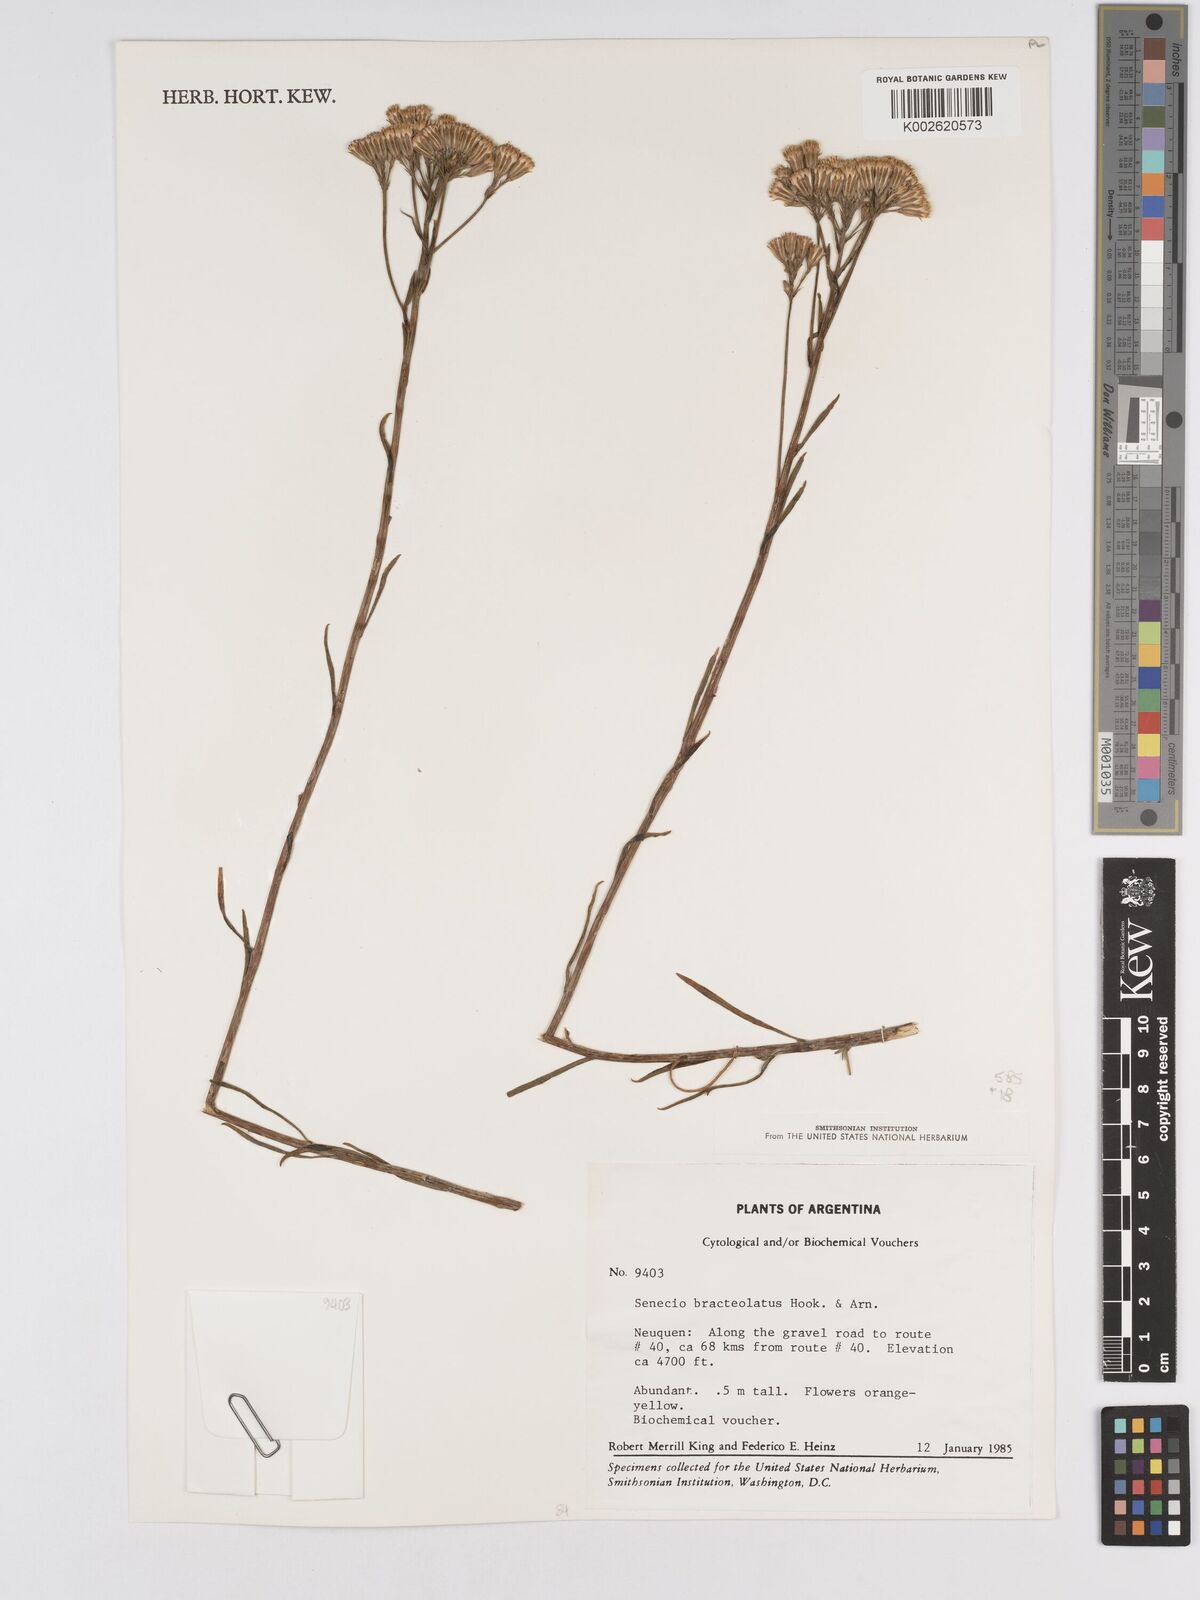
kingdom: Plantae
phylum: Tracheophyta
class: Magnoliopsida
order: Asterales
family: Asteraceae
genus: Senecio
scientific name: Senecio bracteolatus
